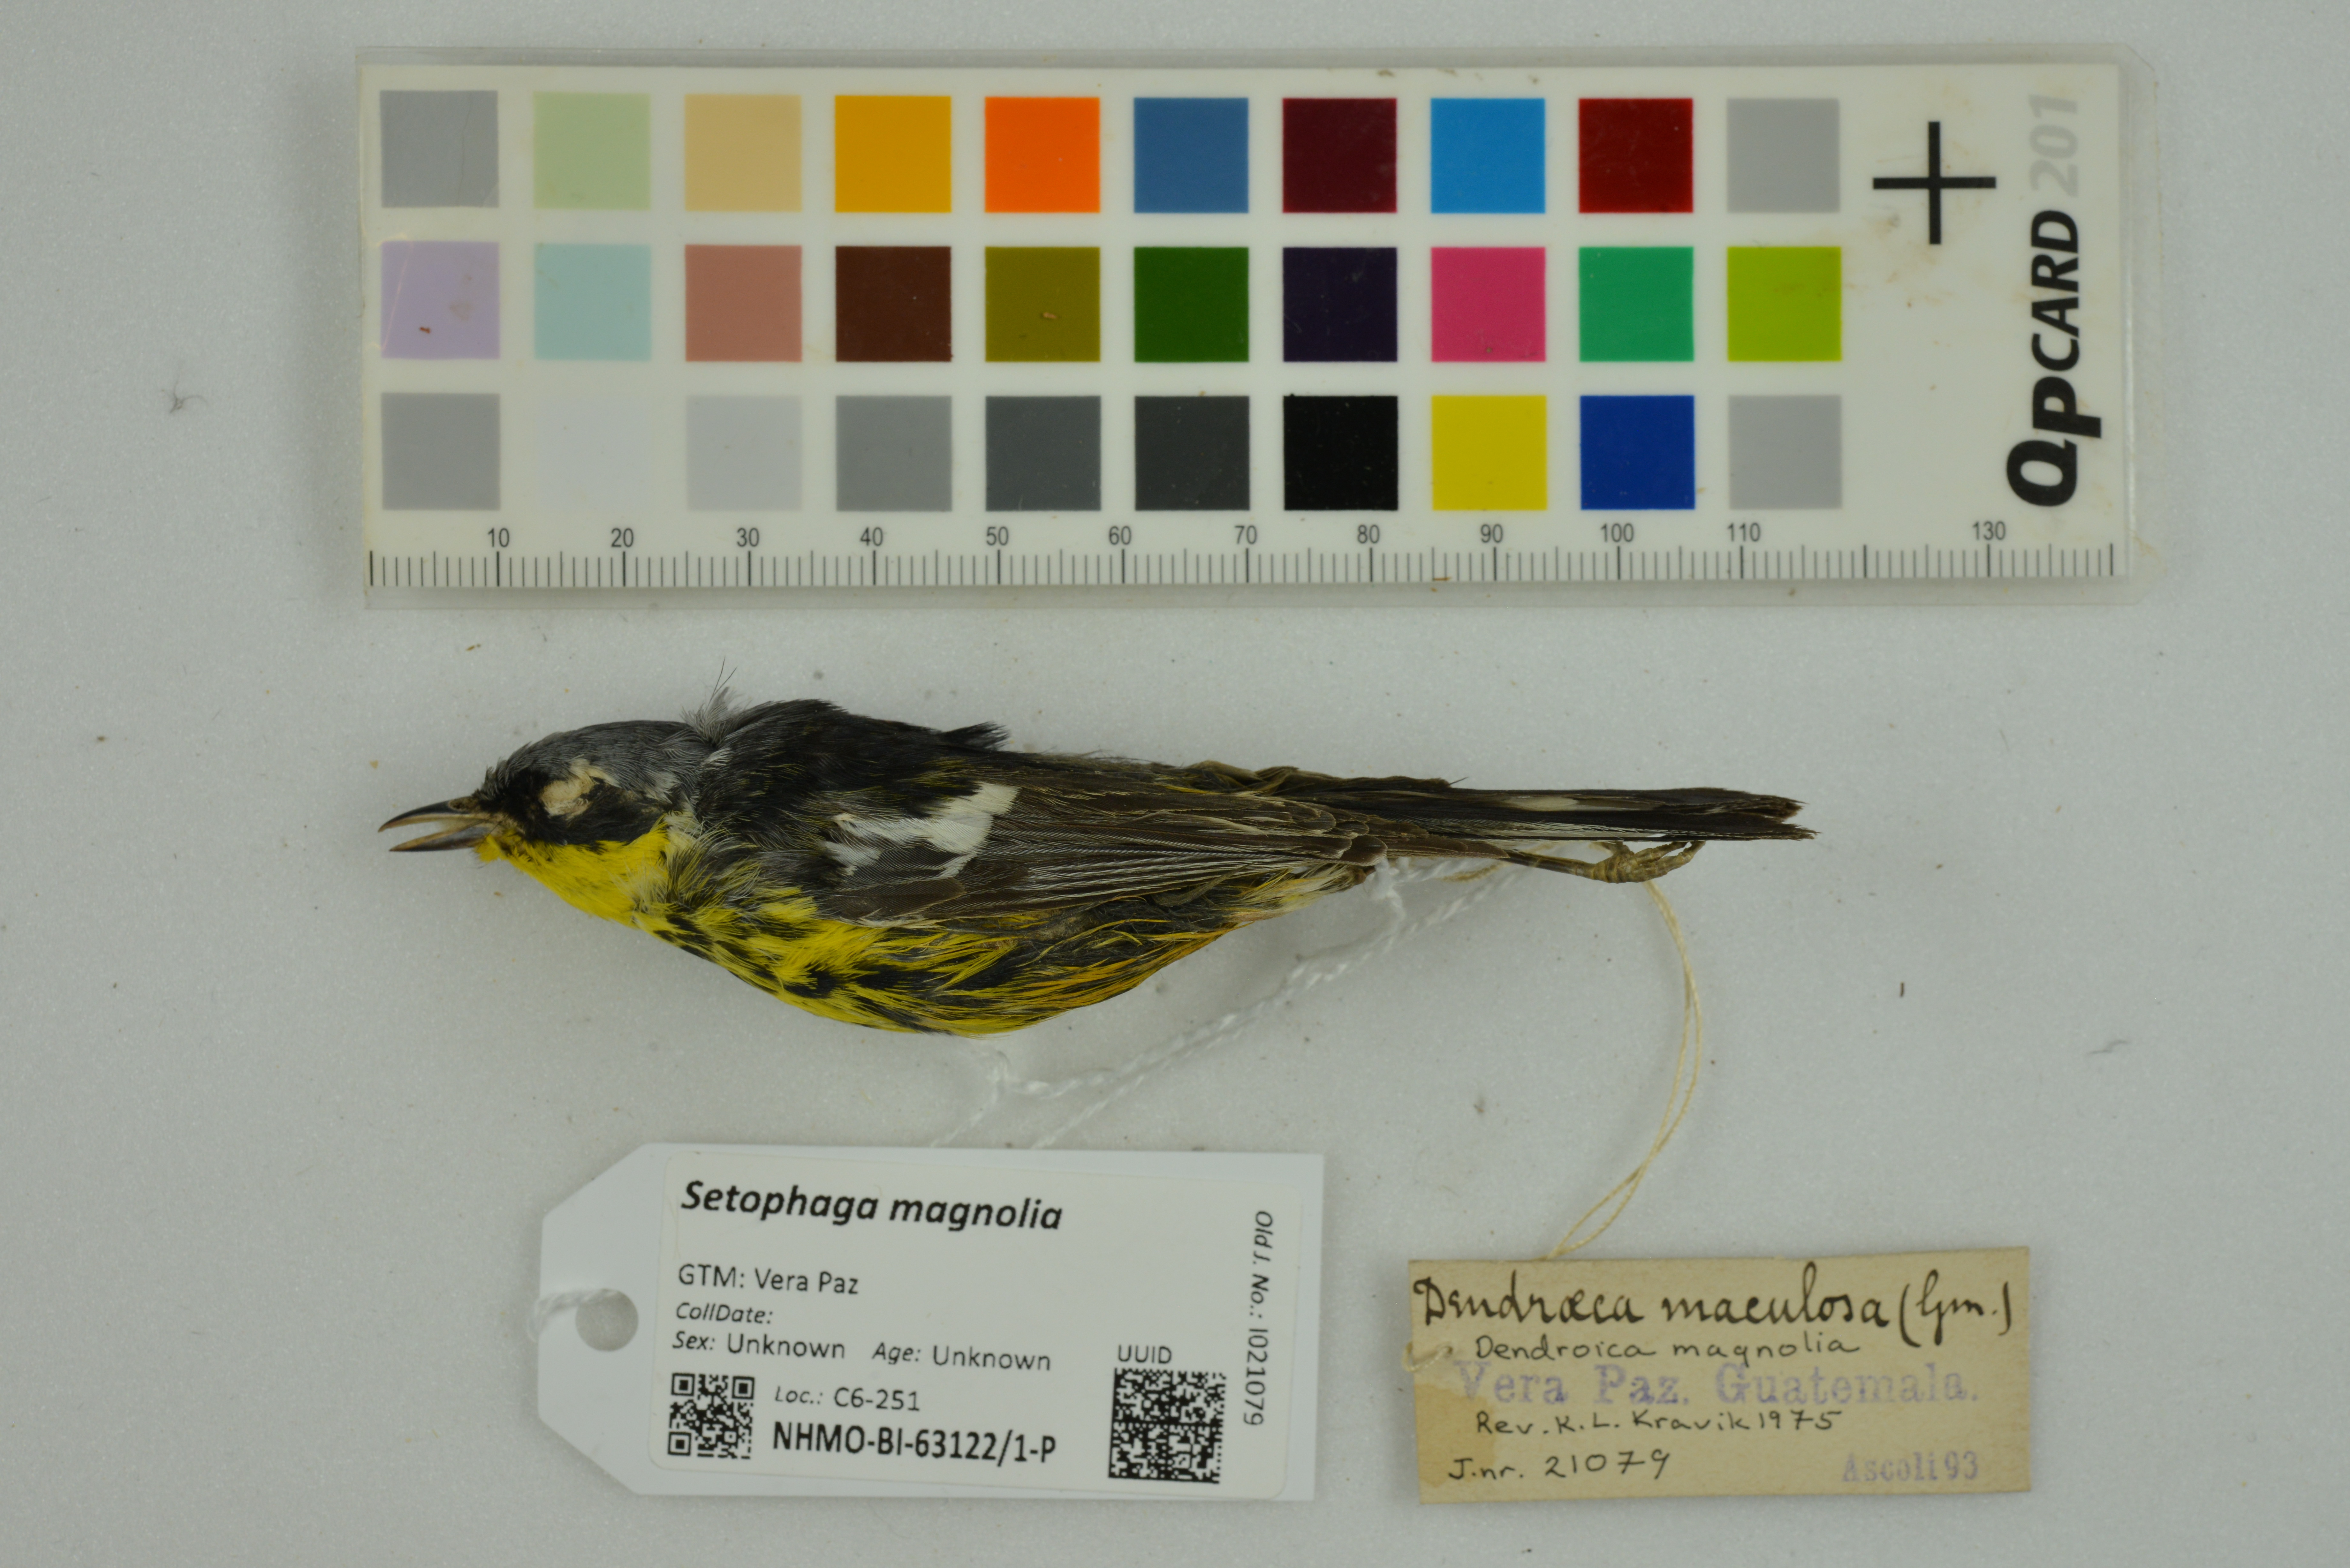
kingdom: Animalia
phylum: Chordata
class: Aves
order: Passeriformes
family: Parulidae
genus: Setophaga
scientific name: Setophaga magnolia
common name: Magnolia warbler
